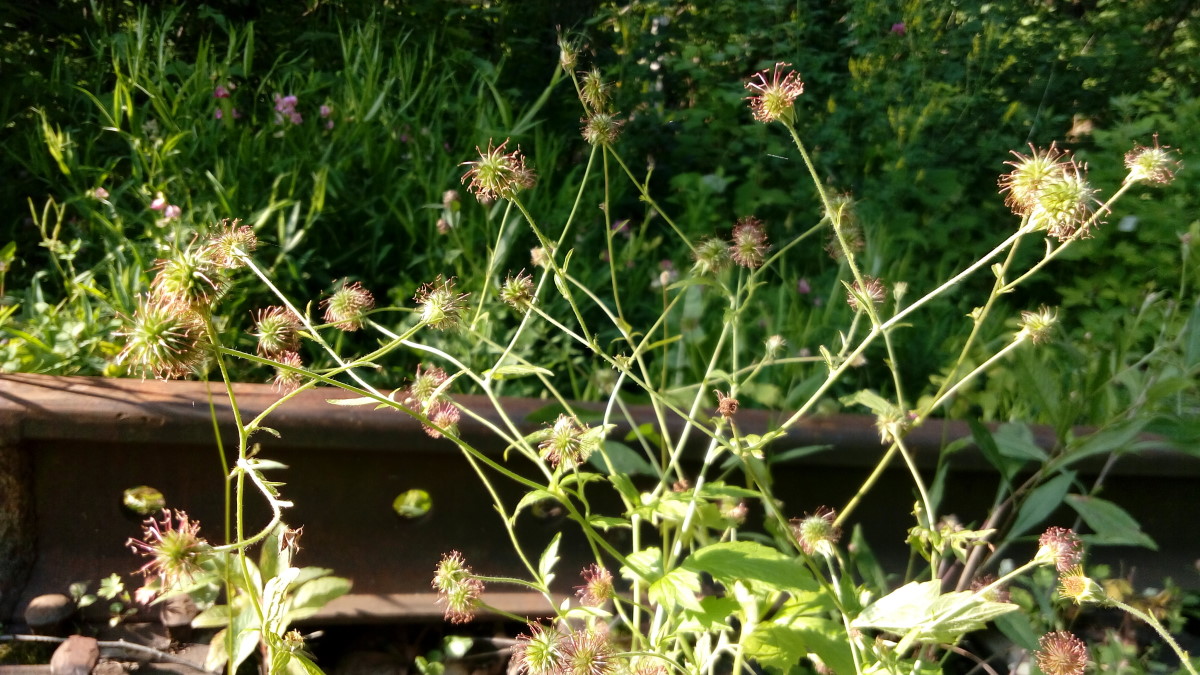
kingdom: Plantae
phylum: Tracheophyta
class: Magnoliopsida
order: Rosales
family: Rosaceae
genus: Geum
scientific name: Geum urbanum
